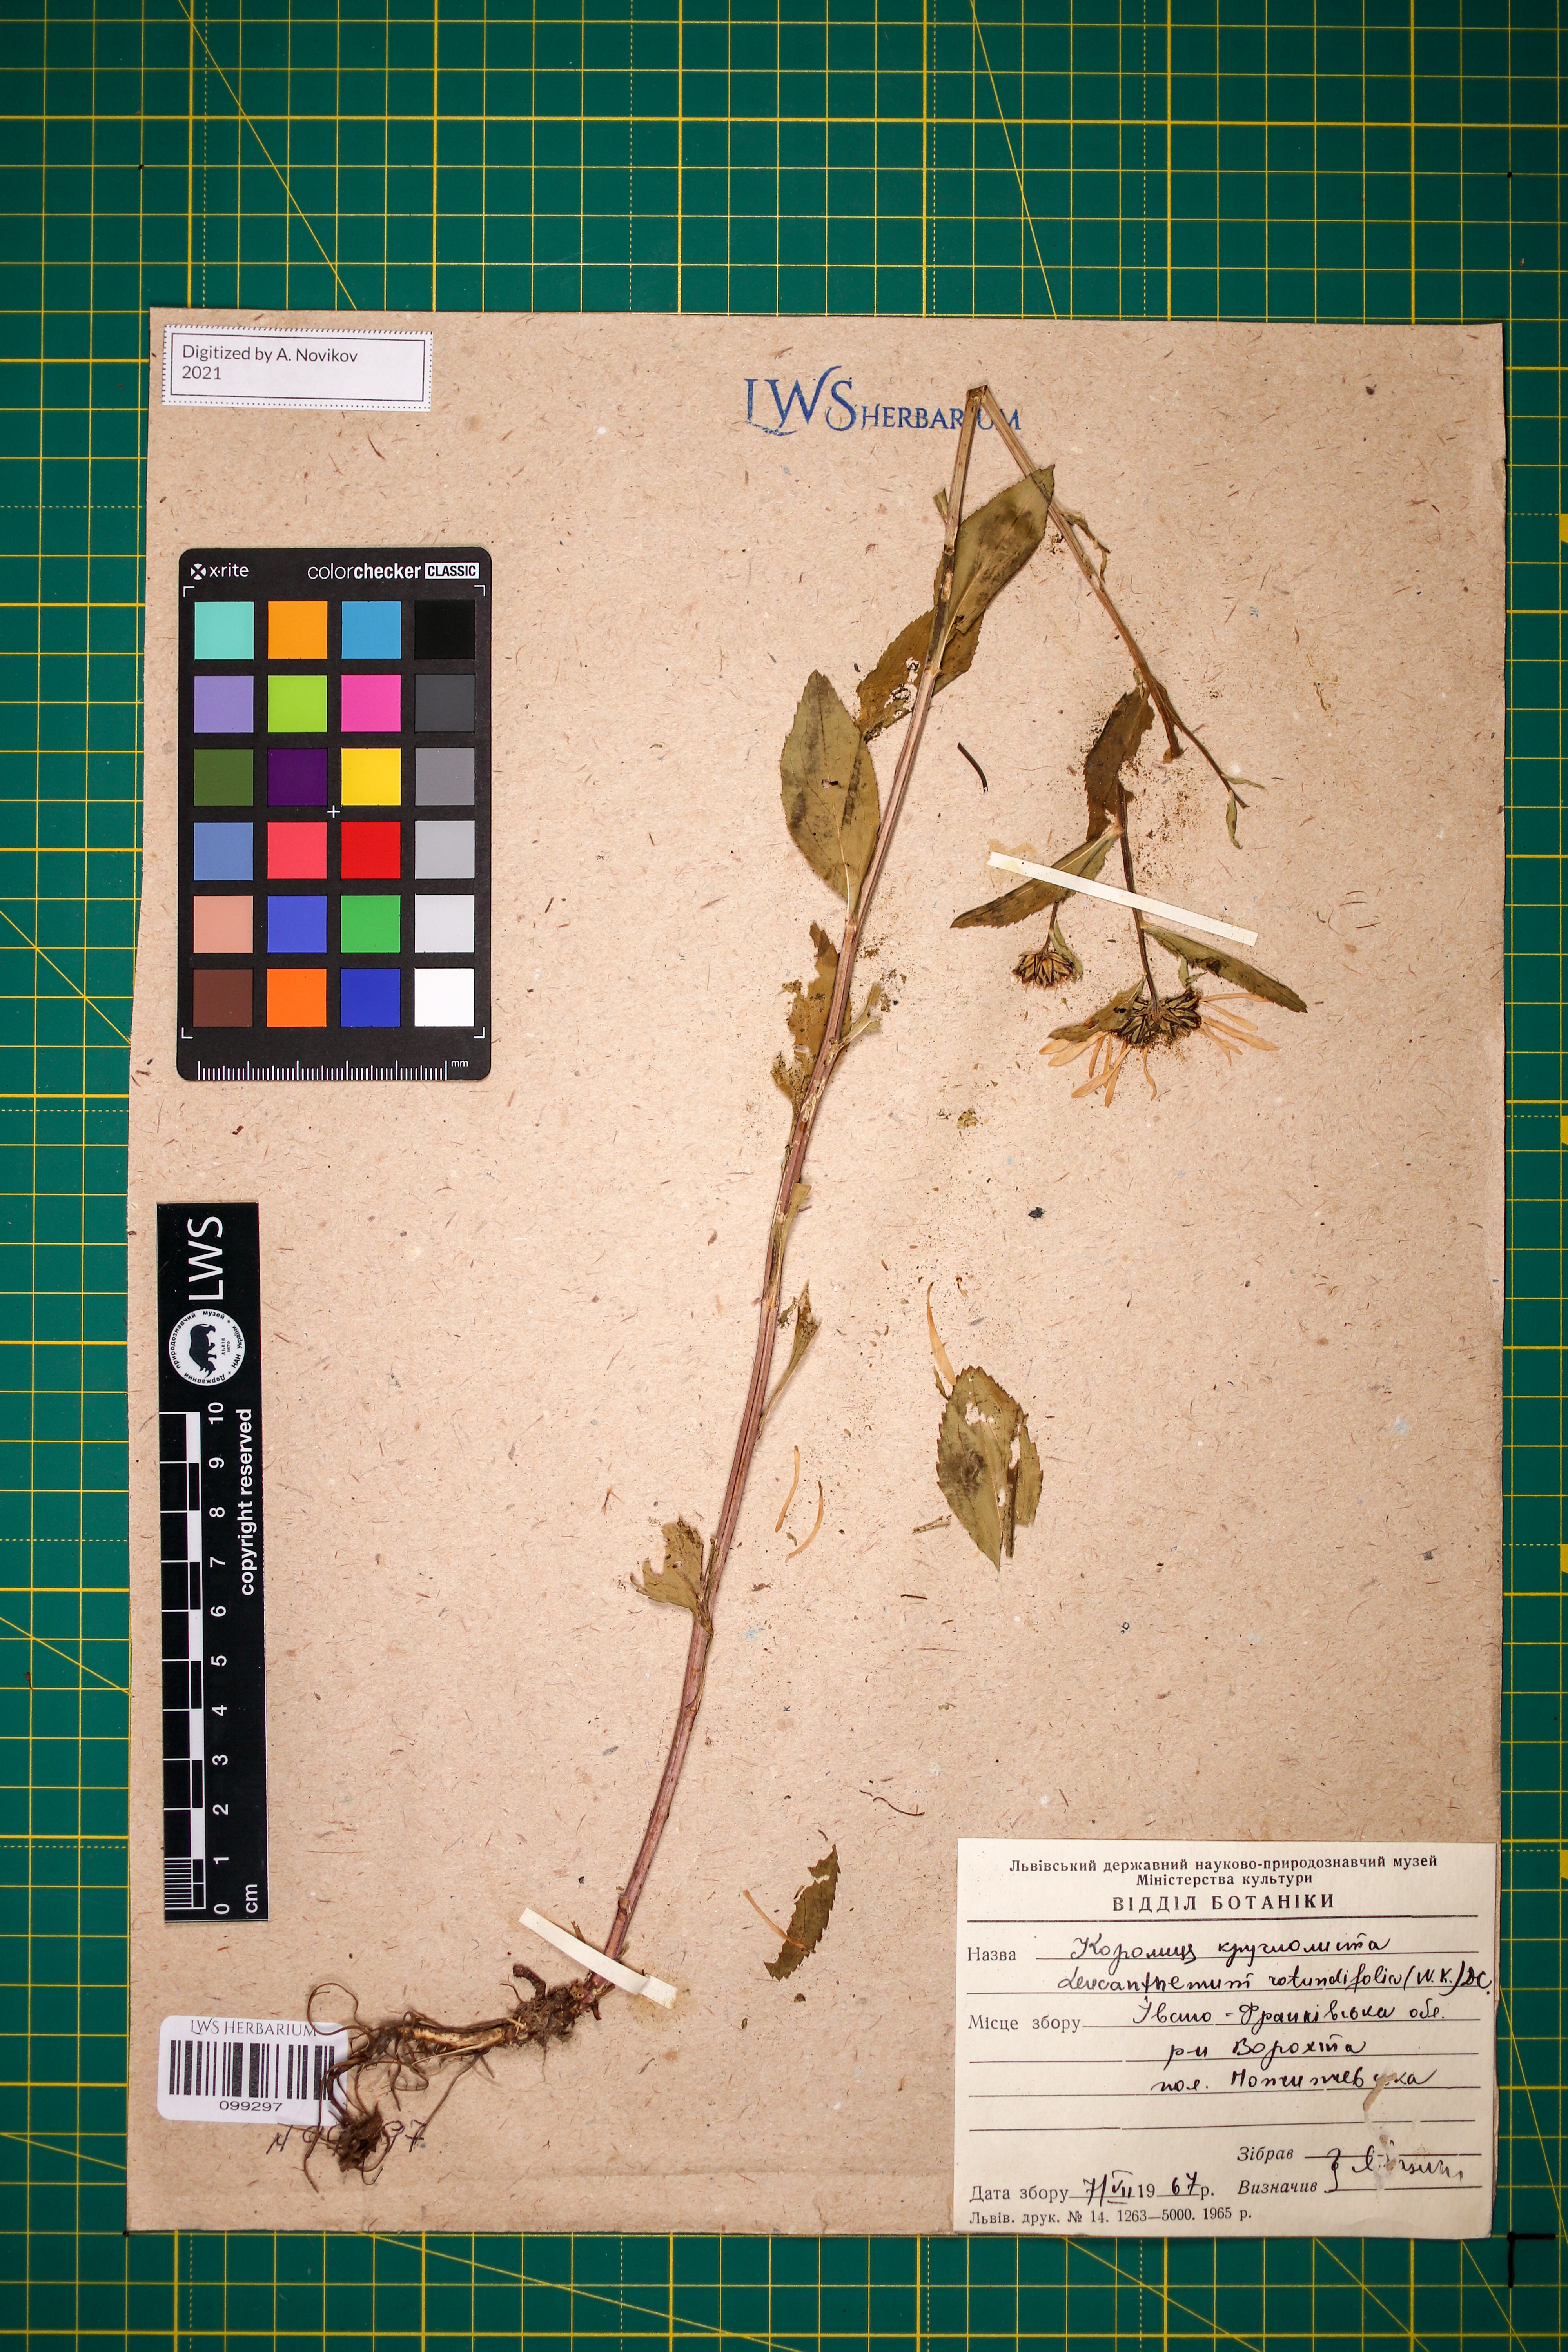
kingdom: Plantae
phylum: Tracheophyta
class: Magnoliopsida
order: Asterales
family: Asteraceae
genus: Leucanthemum
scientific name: Leucanthemum rotundifolium
